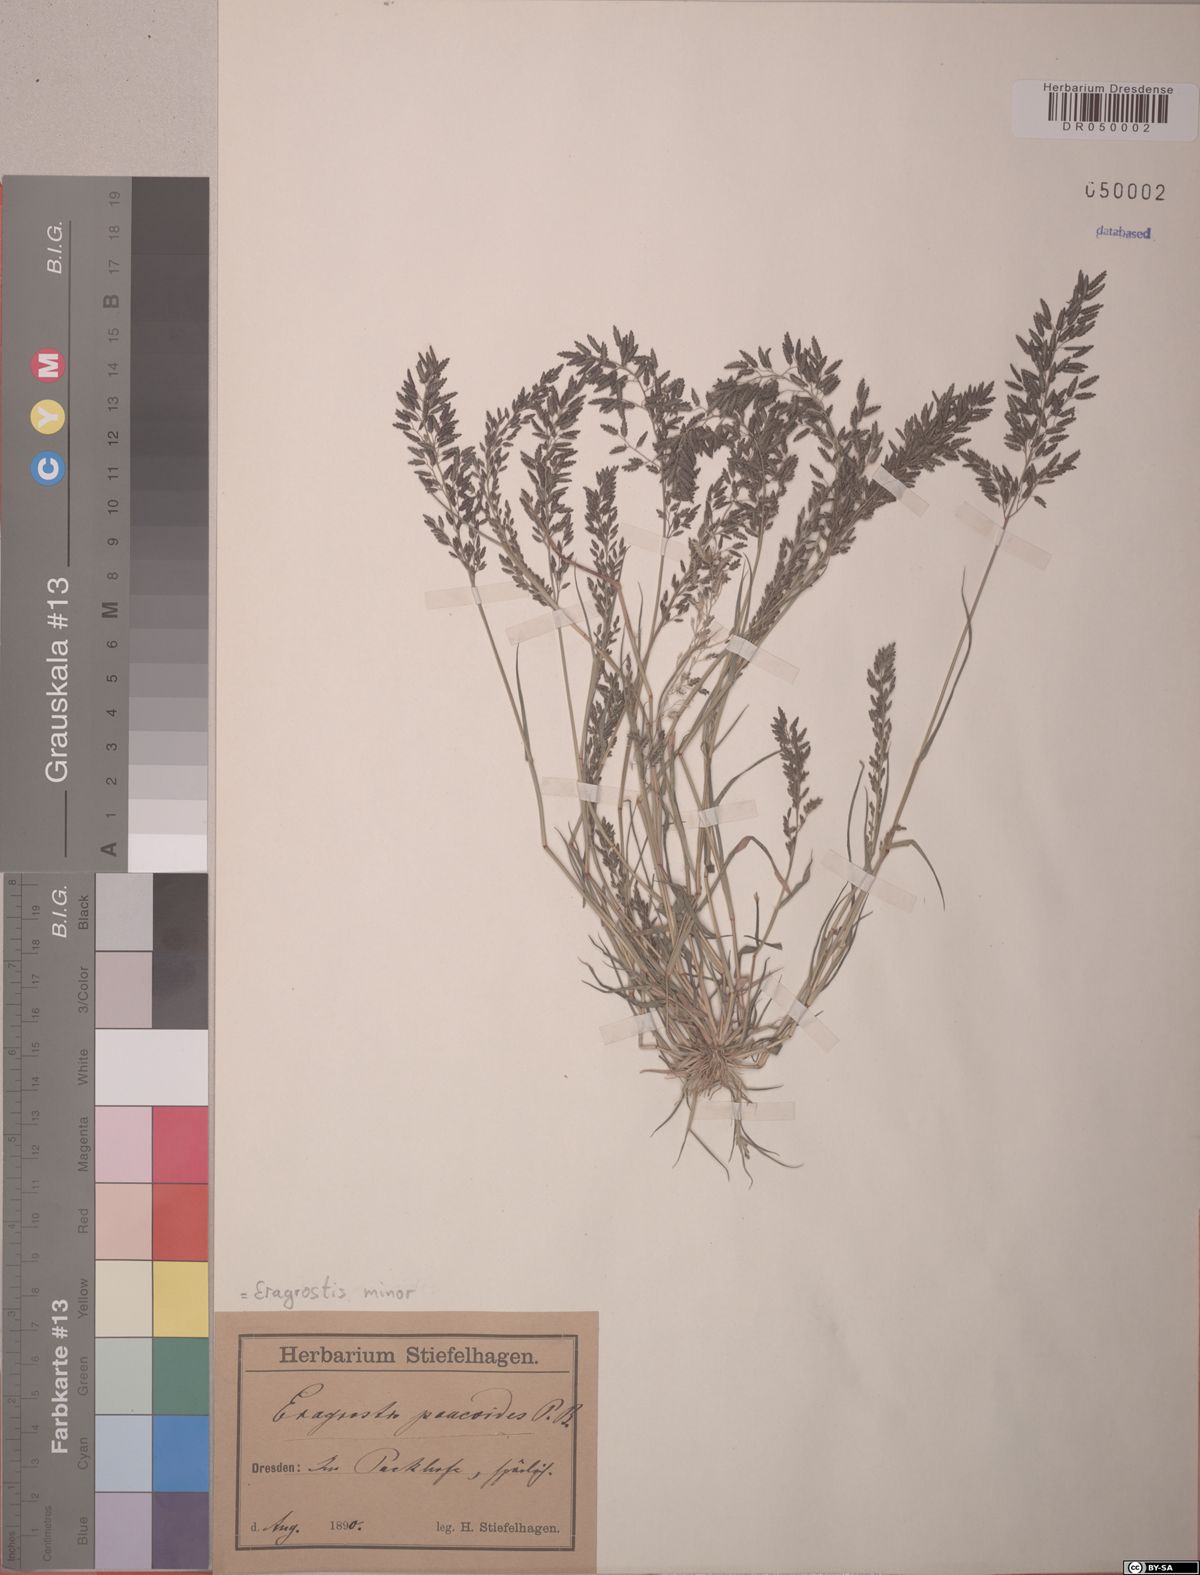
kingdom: Plantae
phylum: Tracheophyta
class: Liliopsida
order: Poales
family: Poaceae
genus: Eragrostis
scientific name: Eragrostis minor
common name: Small love-grass
